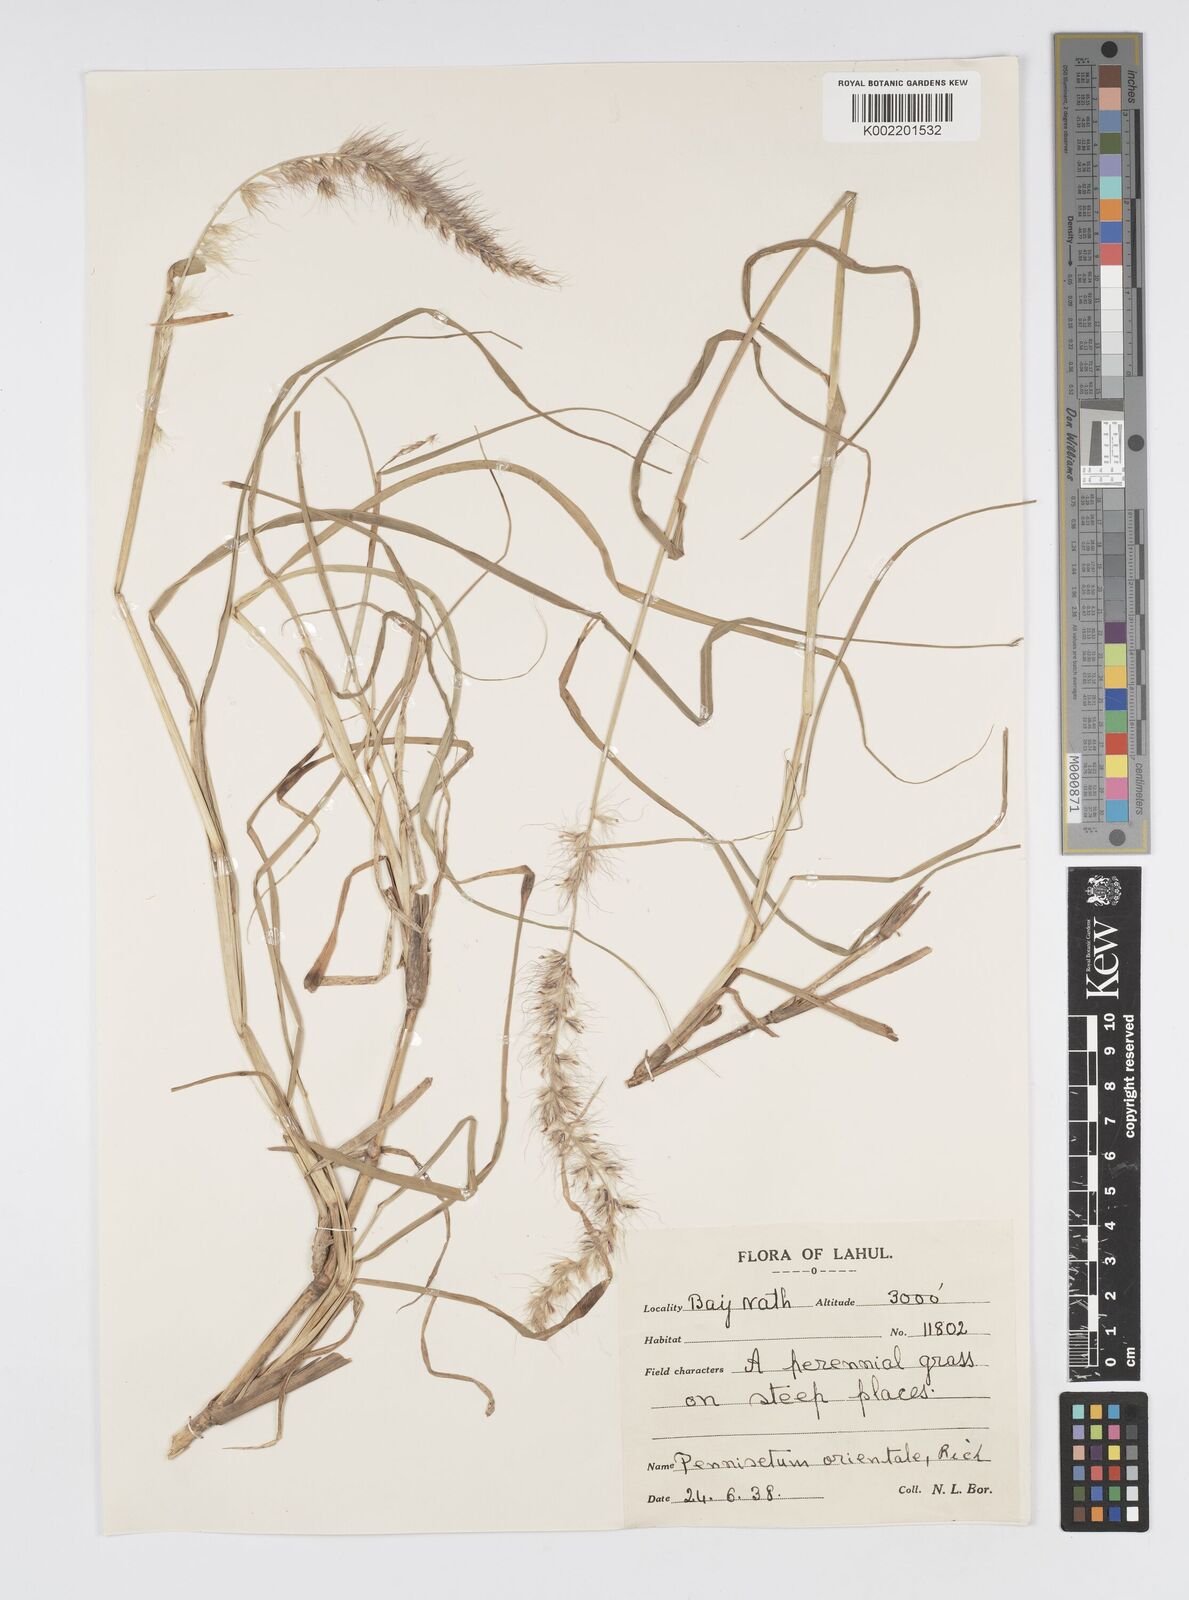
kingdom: Plantae
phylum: Tracheophyta
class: Liliopsida
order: Poales
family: Poaceae
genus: Cenchrus
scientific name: Cenchrus orientalis
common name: Oriental fountain grass
